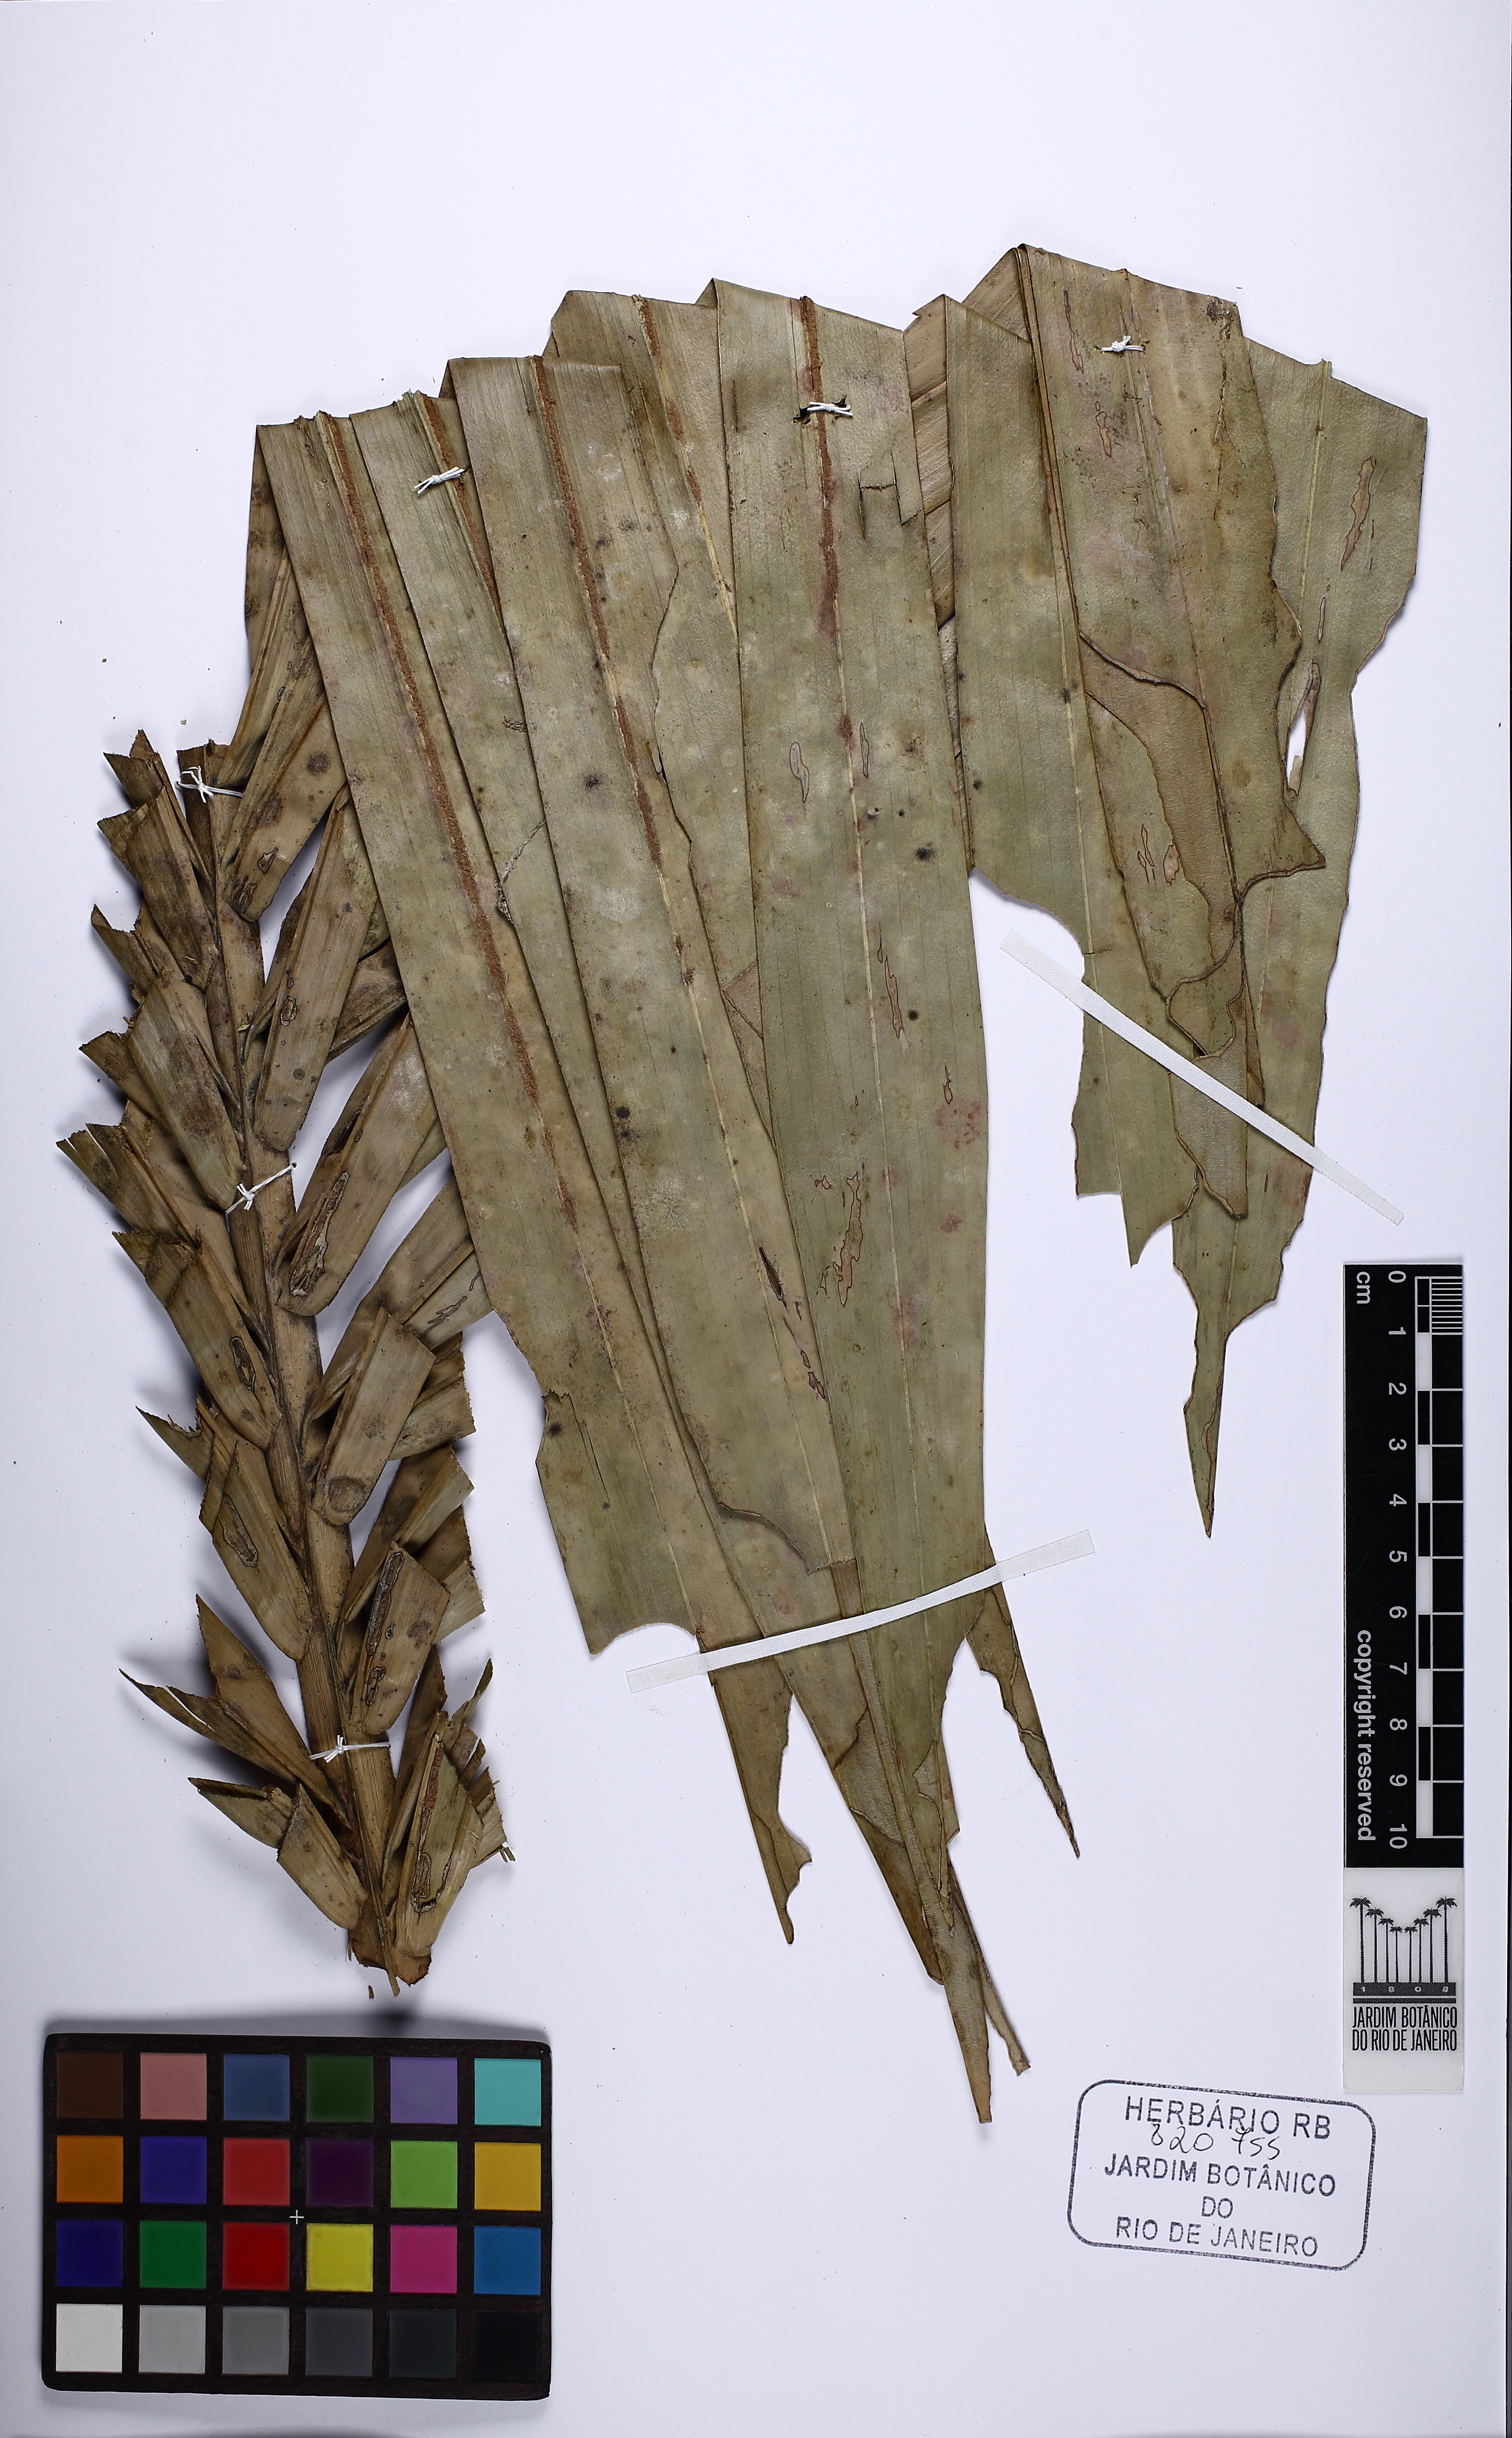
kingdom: Plantae
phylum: Tracheophyta
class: Liliopsida
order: Arecales
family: Arecaceae
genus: Syagrus
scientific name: Syagrus pseudococos
